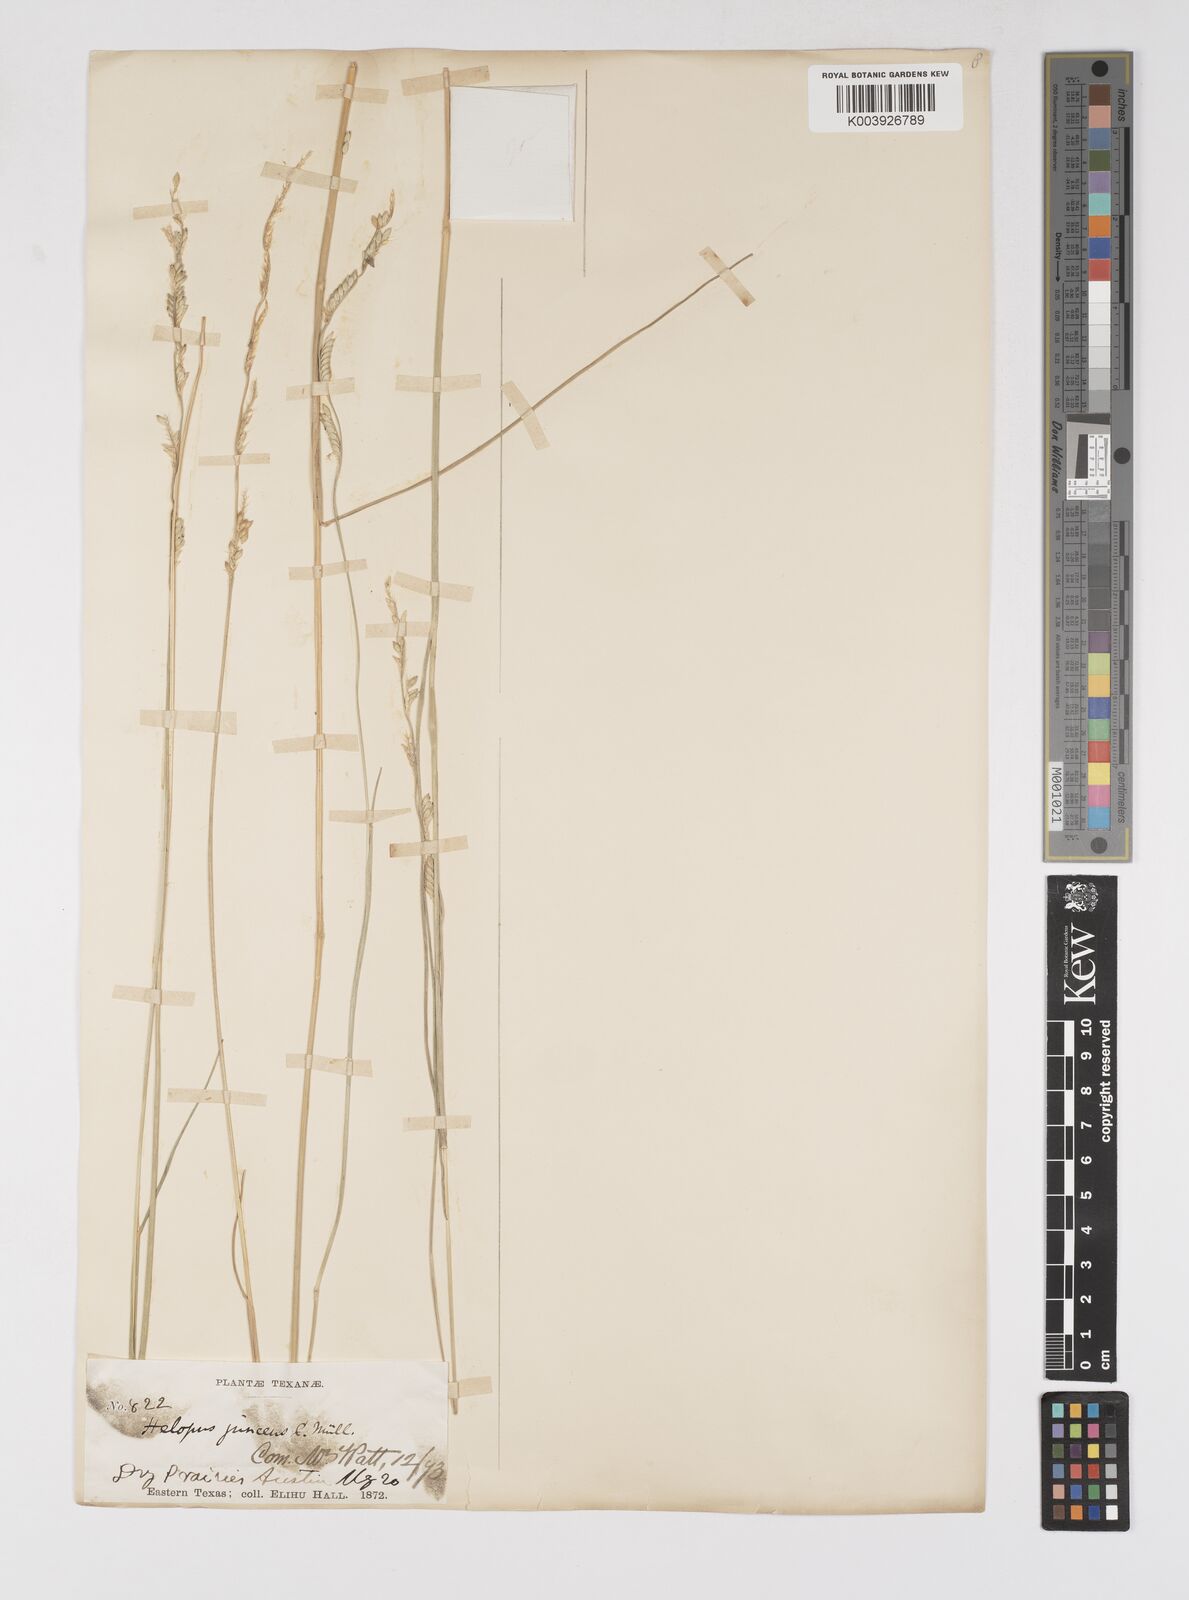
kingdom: Plantae
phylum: Tracheophyta
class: Liliopsida
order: Poales
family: Poaceae
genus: Eriochloa
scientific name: Eriochloa sericea
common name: Texas cup grass
